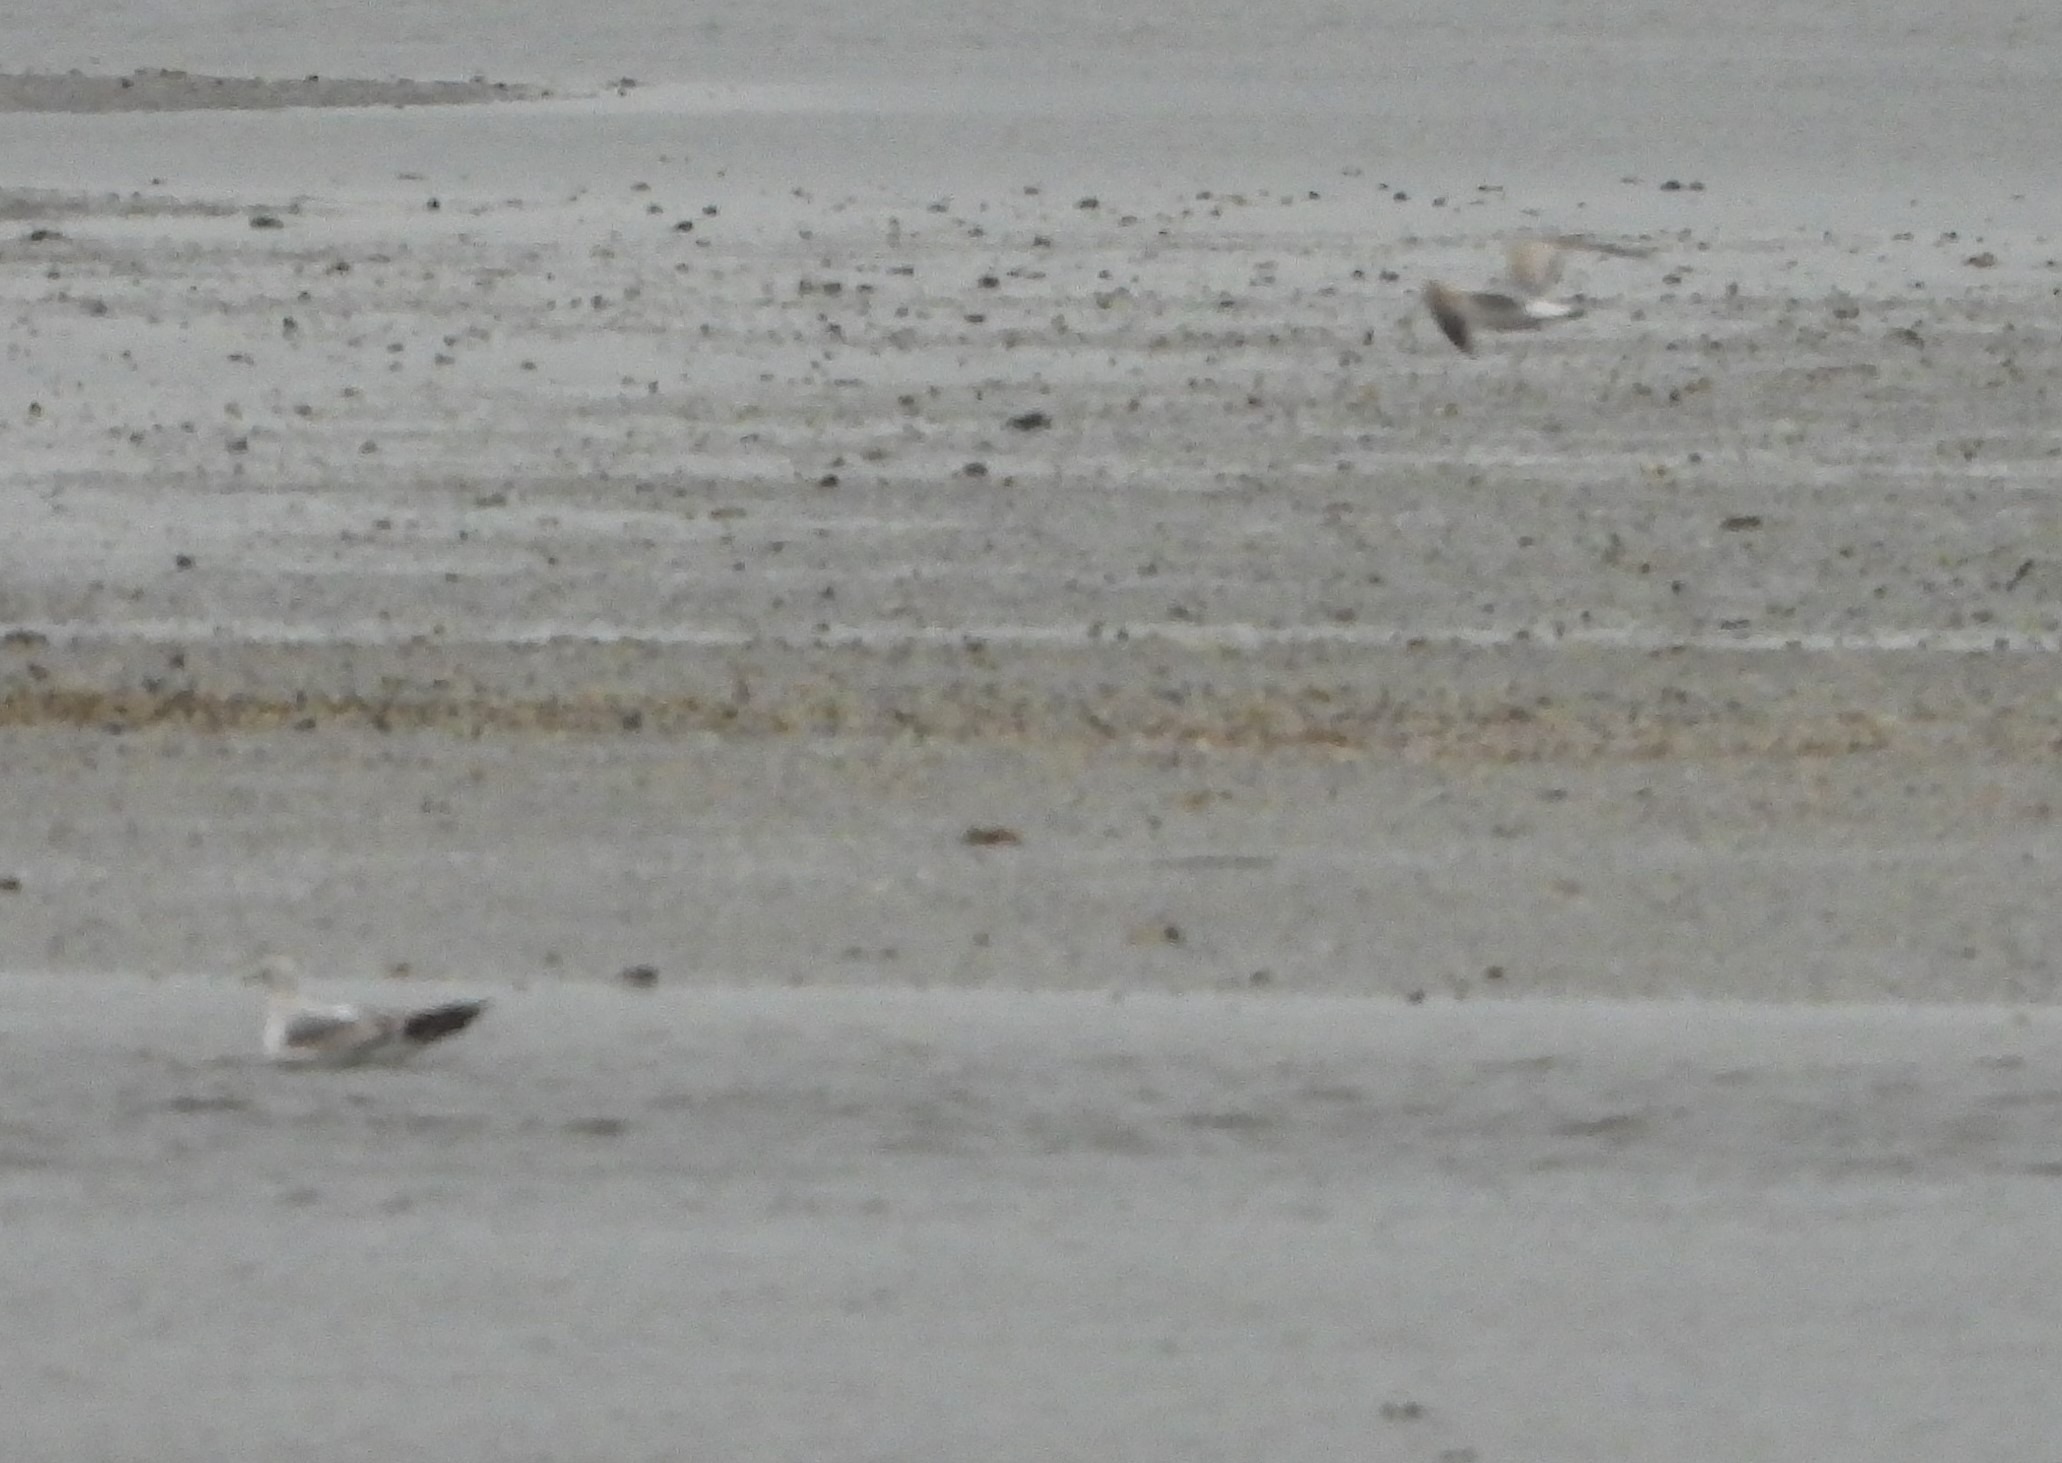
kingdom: Animalia
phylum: Chordata
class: Aves
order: Charadriiformes
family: Laridae
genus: Larus
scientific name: Larus canus
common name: Stormmåge
